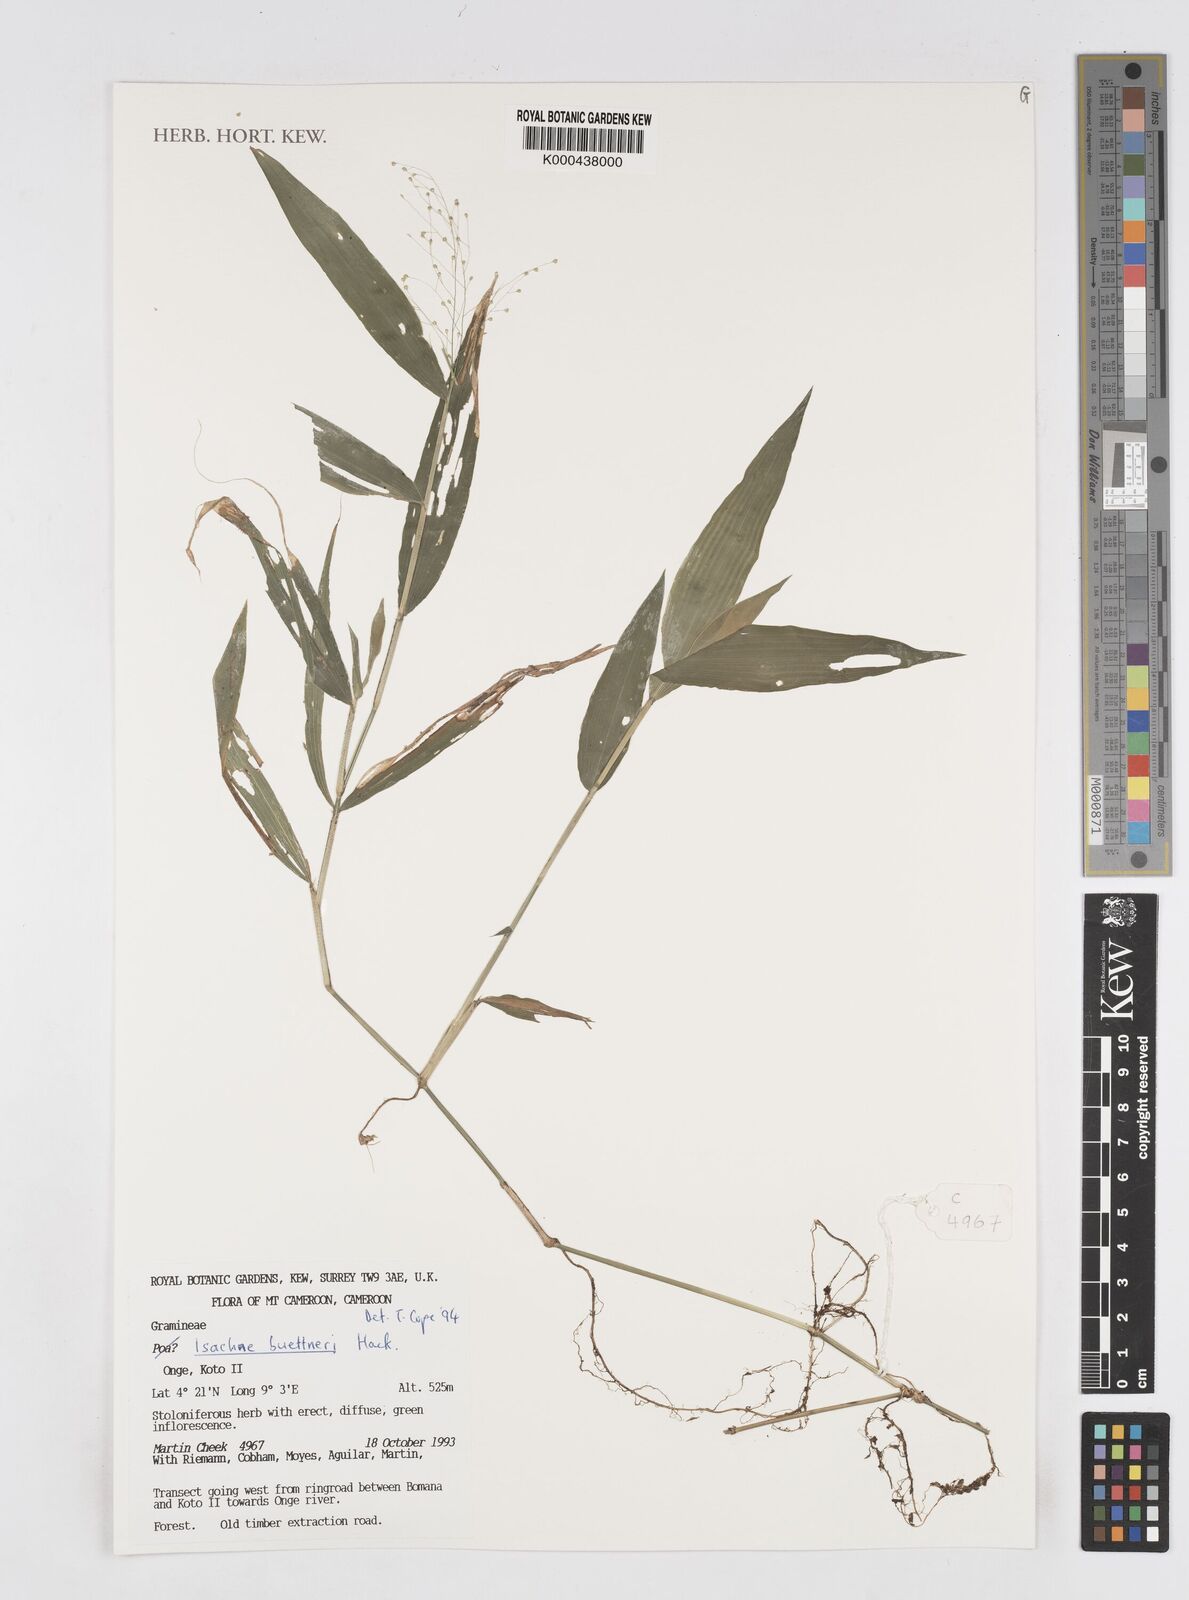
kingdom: Plantae
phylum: Tracheophyta
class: Liliopsida
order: Poales
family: Poaceae
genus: Isachne
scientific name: Isachne albens
